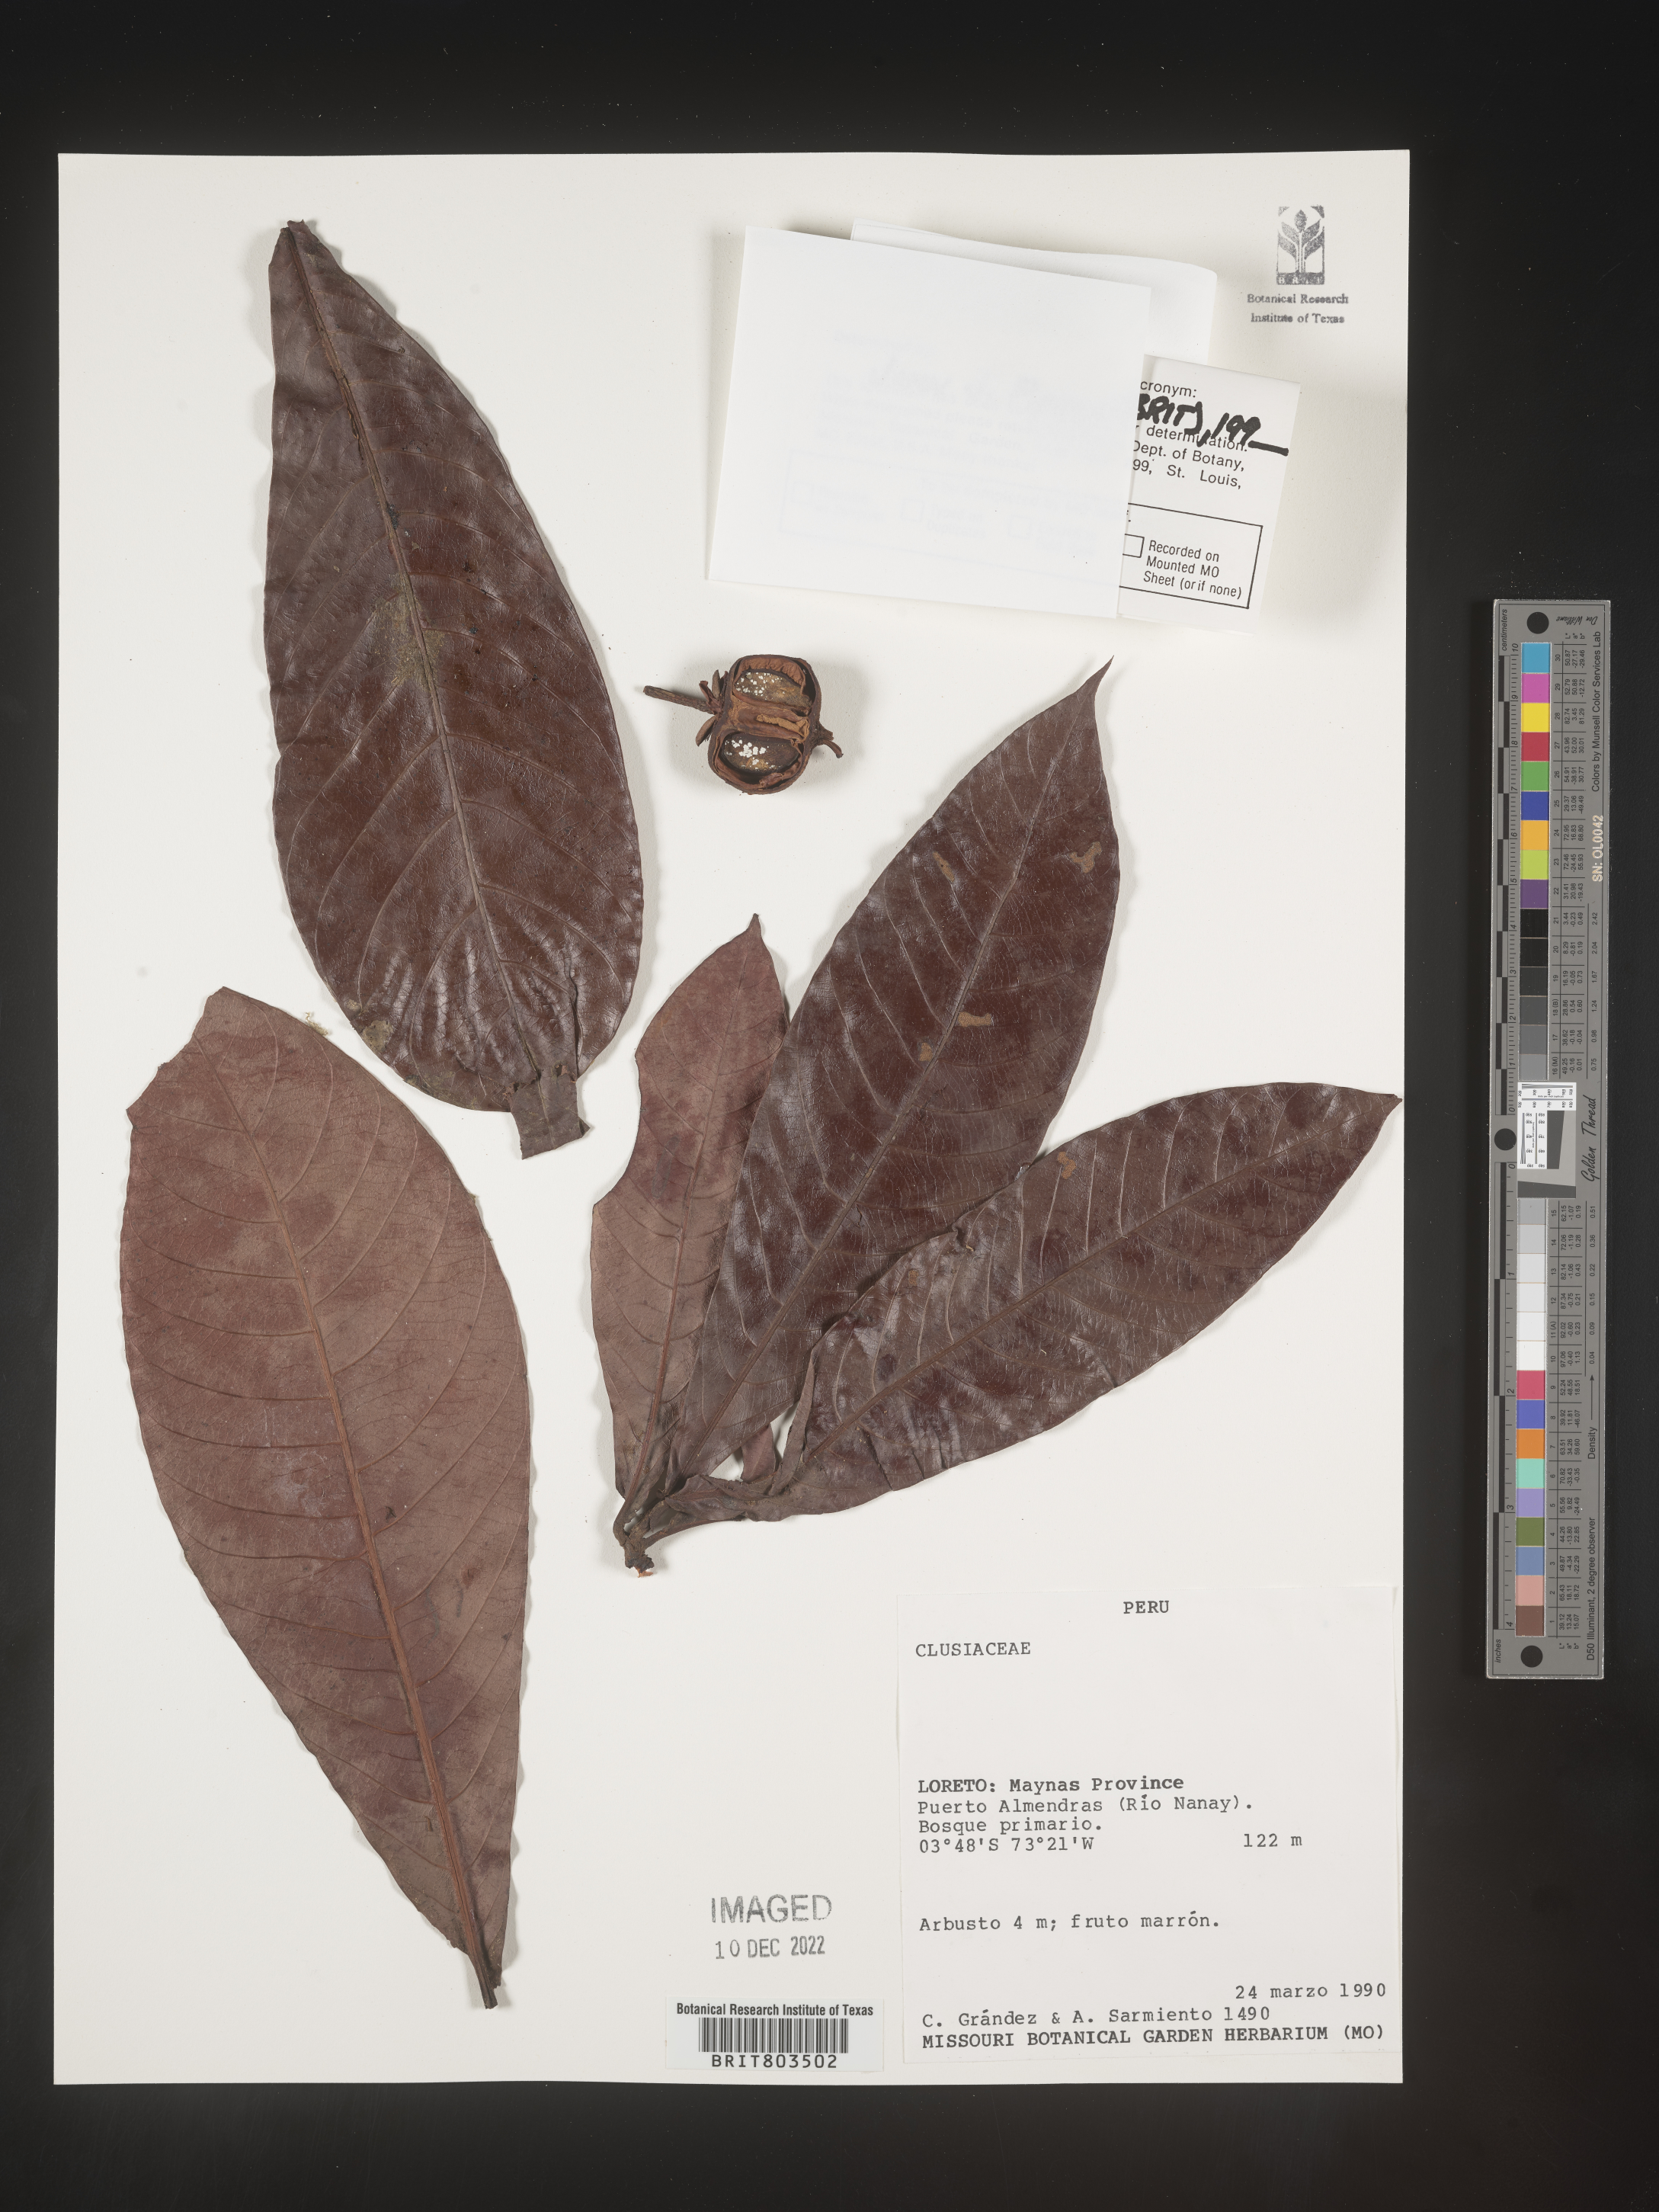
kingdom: Plantae
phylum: Tracheophyta
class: Magnoliopsida
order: Malpighiales
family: Clusiaceae
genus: Tovomita
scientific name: Tovomita
